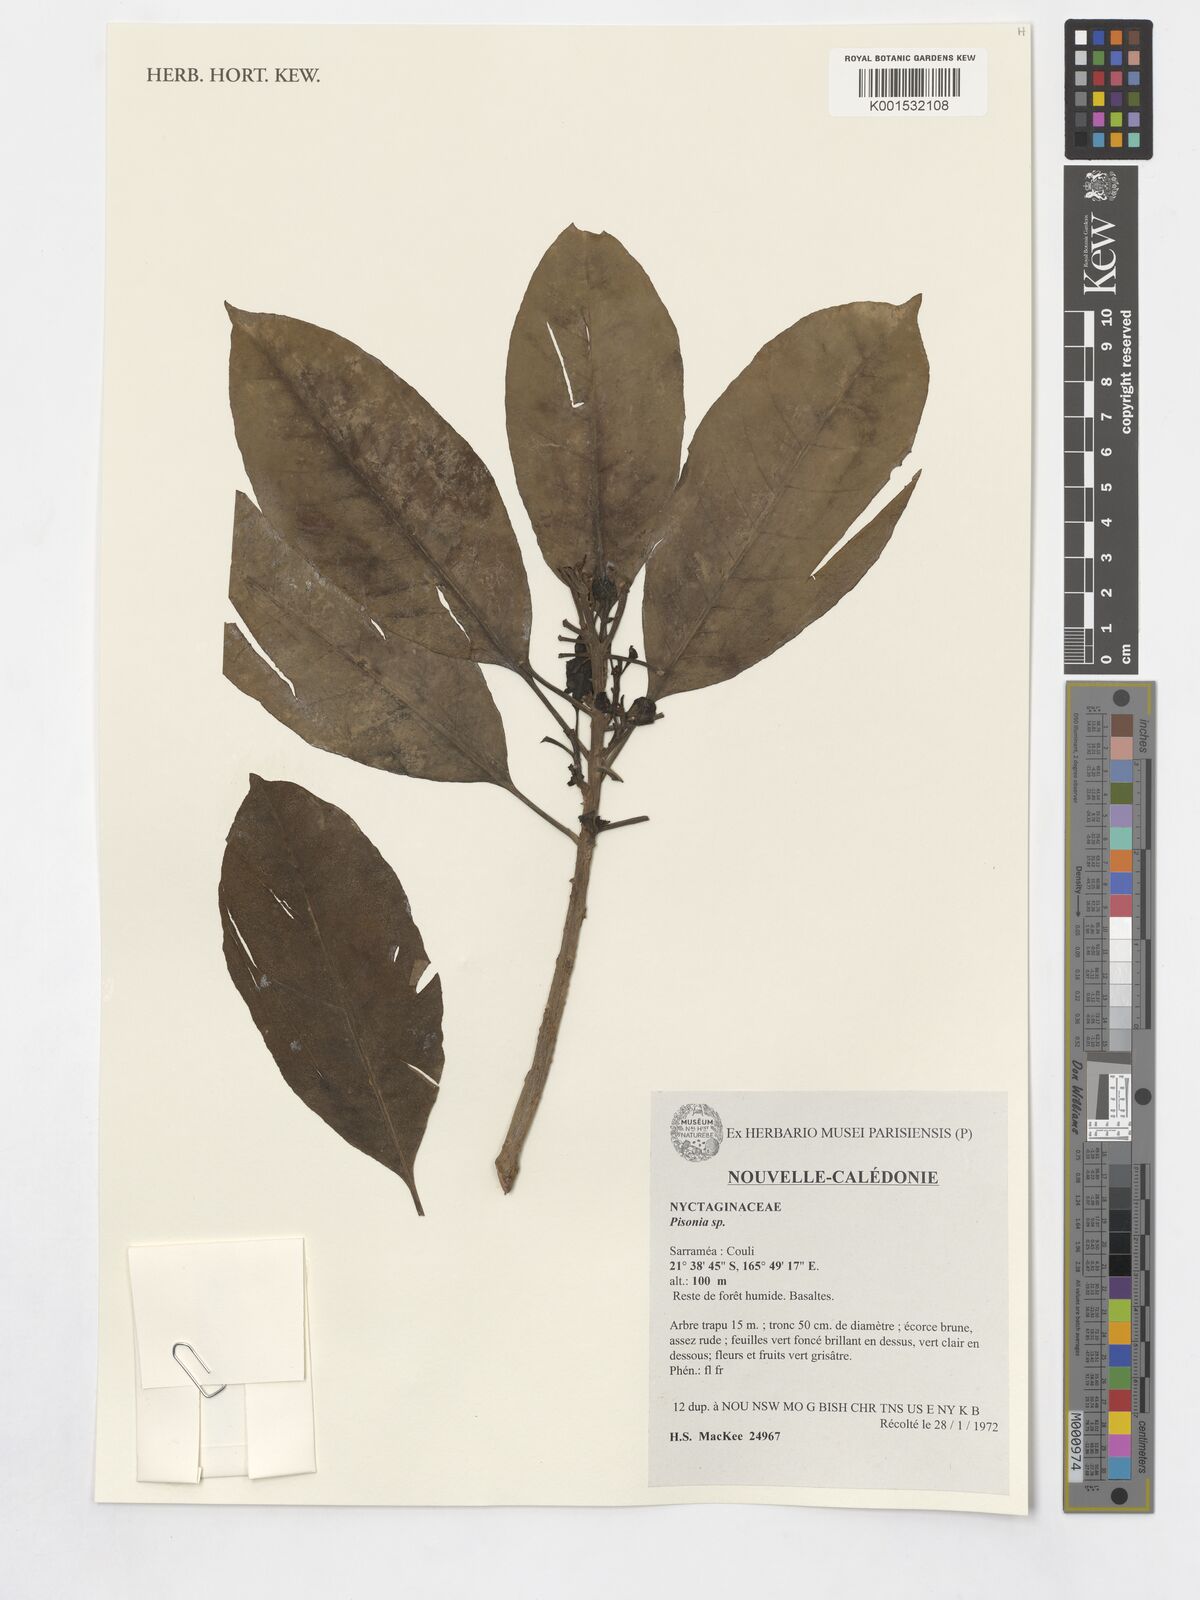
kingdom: Plantae
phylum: Tracheophyta
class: Magnoliopsida
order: Caryophyllales
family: Nyctaginaceae
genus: Pisonia
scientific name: Pisonia
